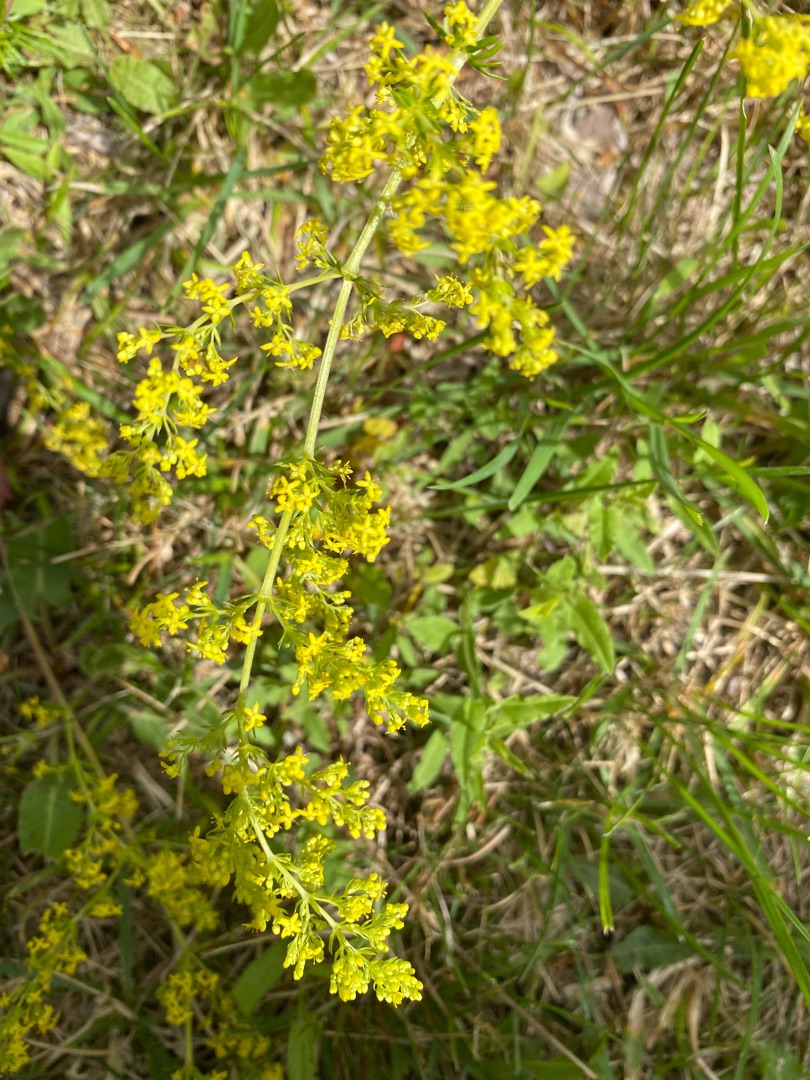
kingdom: Plantae
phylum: Tracheophyta
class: Magnoliopsida
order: Gentianales
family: Rubiaceae
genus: Galium
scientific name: Galium verum
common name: Gul snerre
